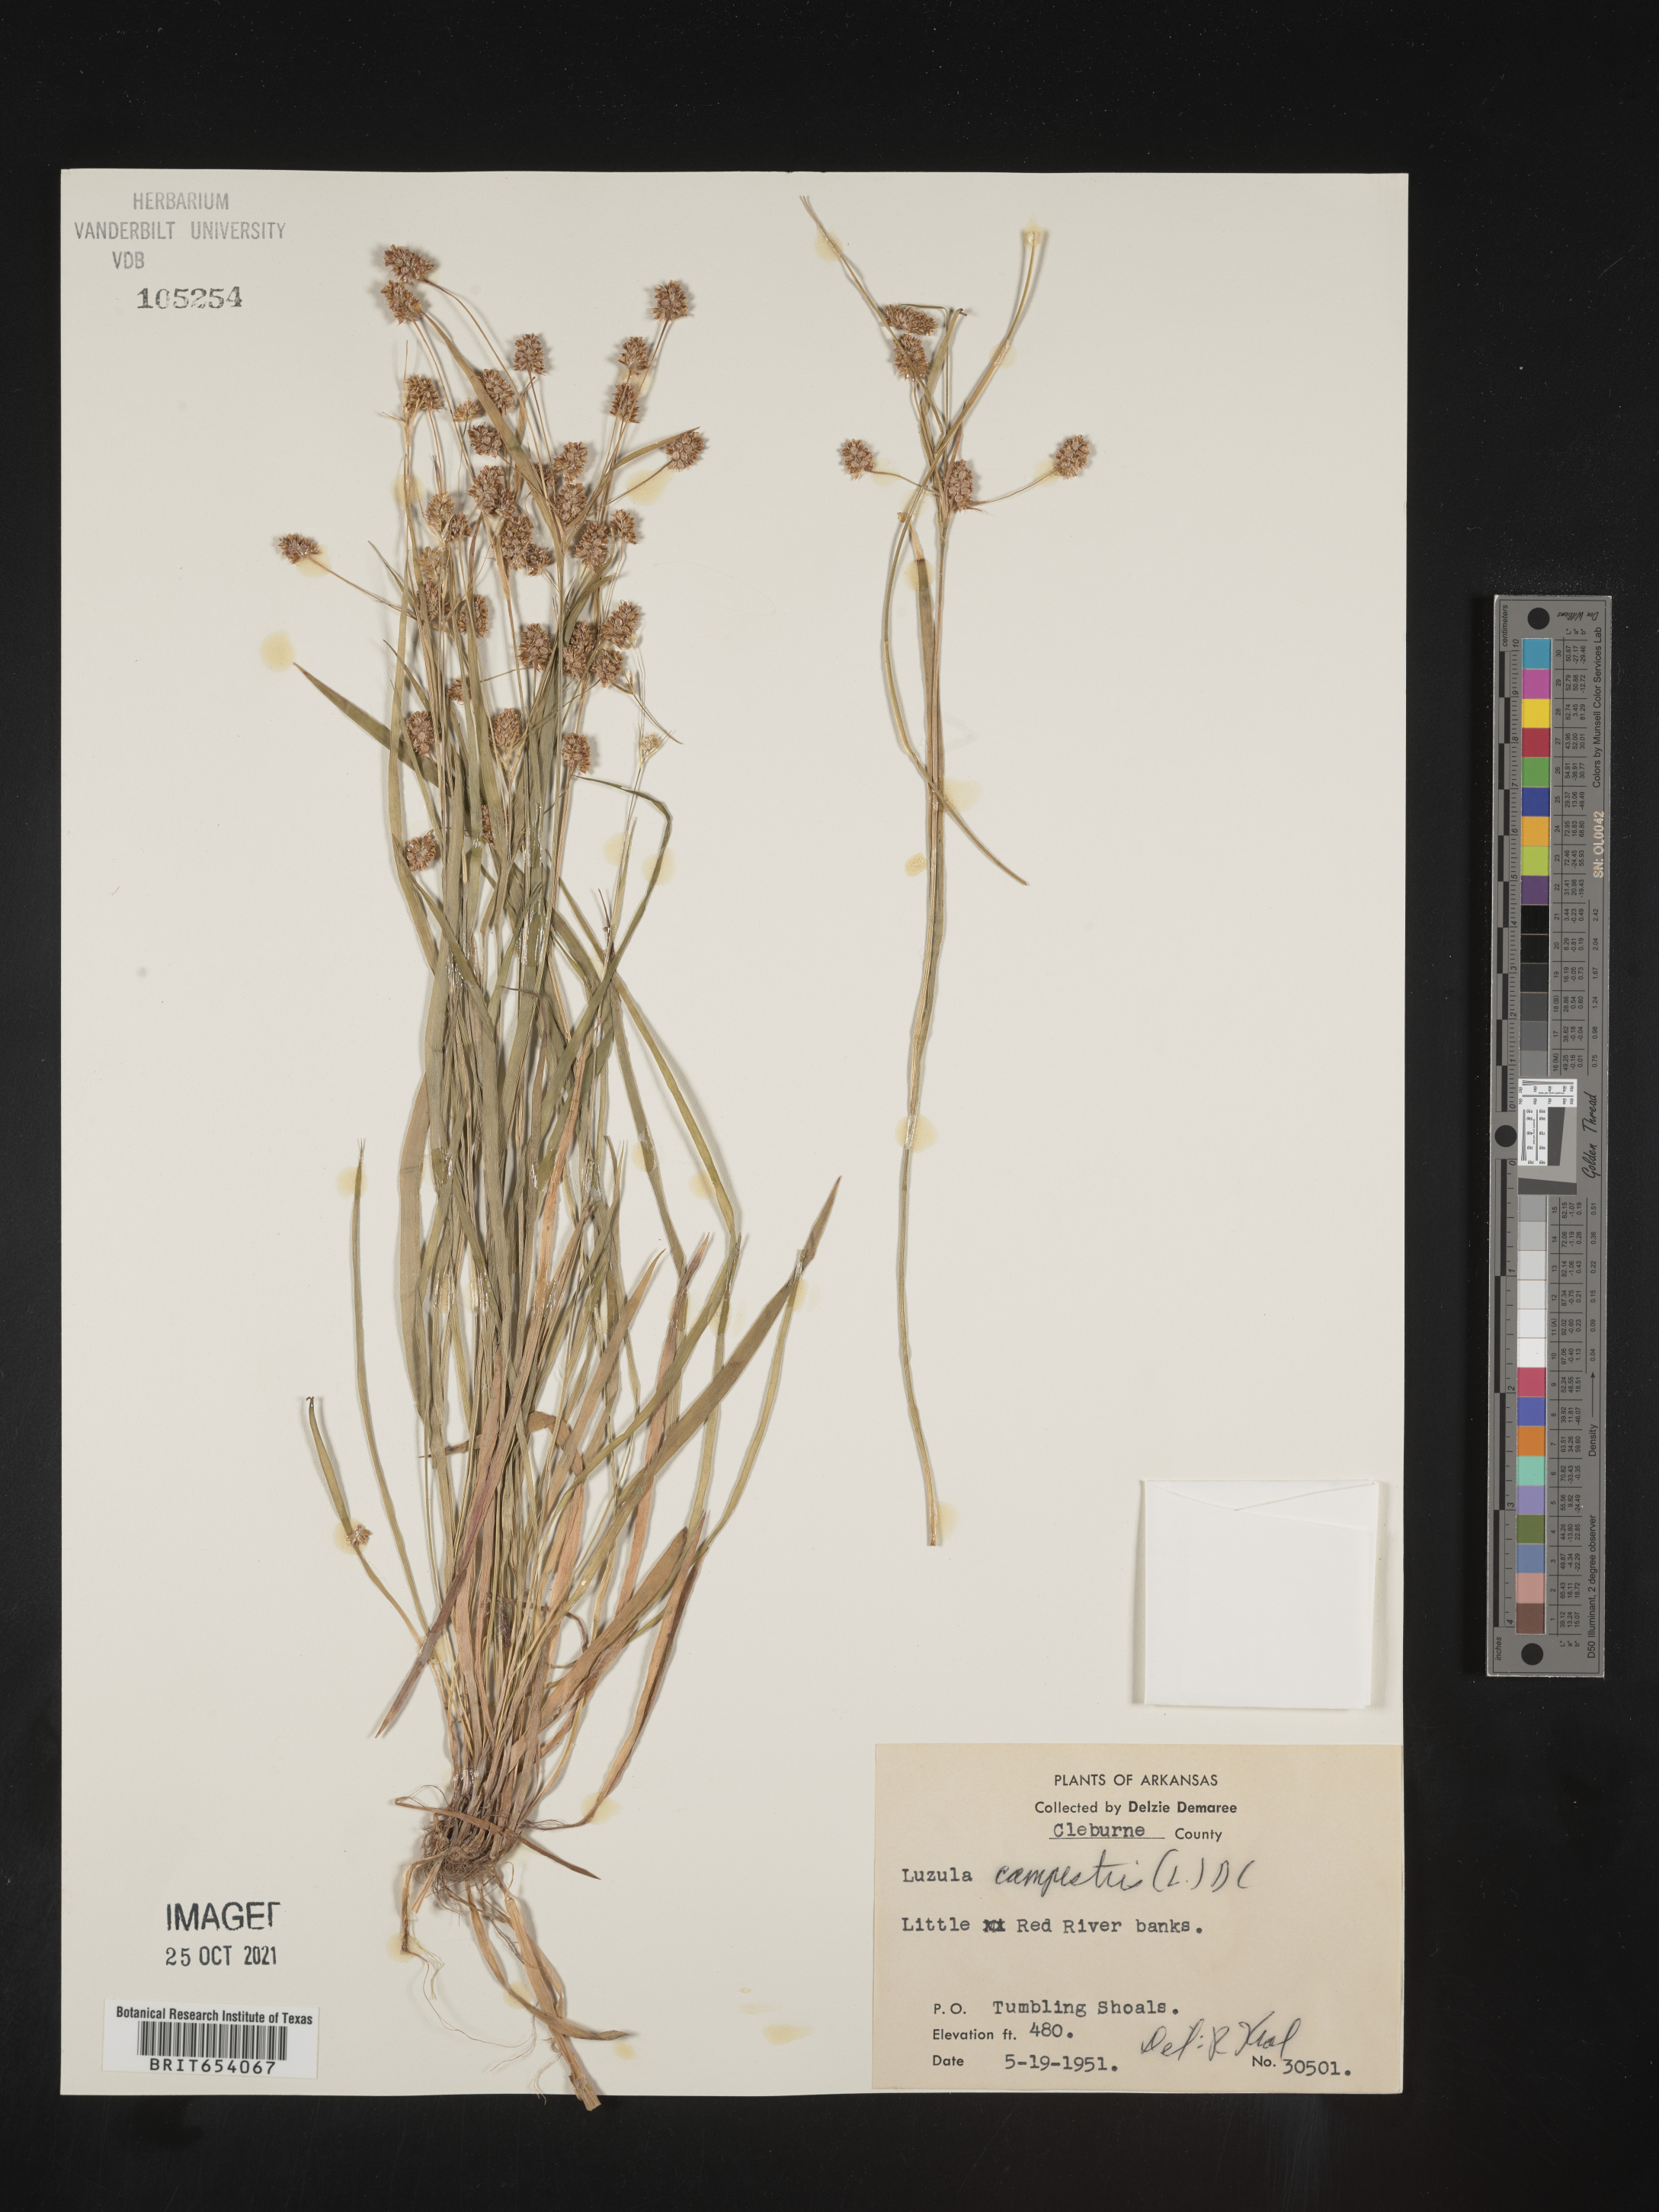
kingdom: Plantae
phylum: Tracheophyta
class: Liliopsida
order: Poales
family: Juncaceae
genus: Luzula
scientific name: Luzula campestris
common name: Field wood-rush
